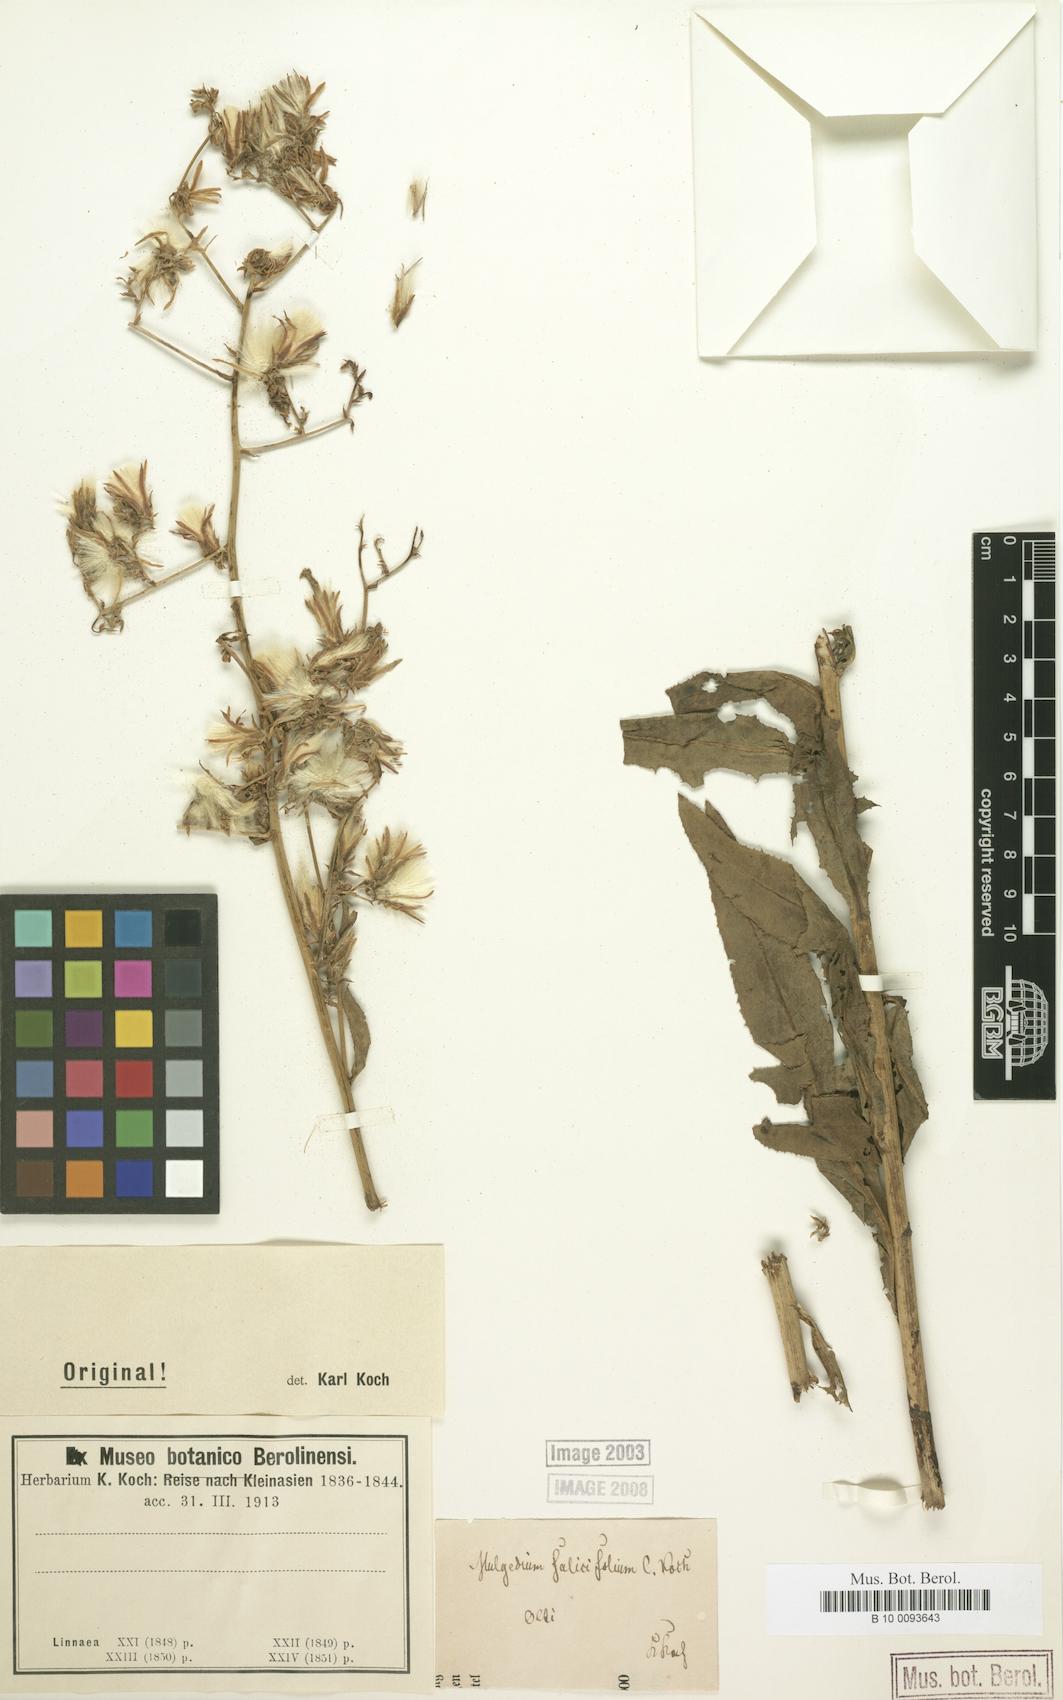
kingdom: Plantae
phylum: Tracheophyta
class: Magnoliopsida
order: Asterales
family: Asteraceae
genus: Lactuca
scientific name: Lactuca kochiana
